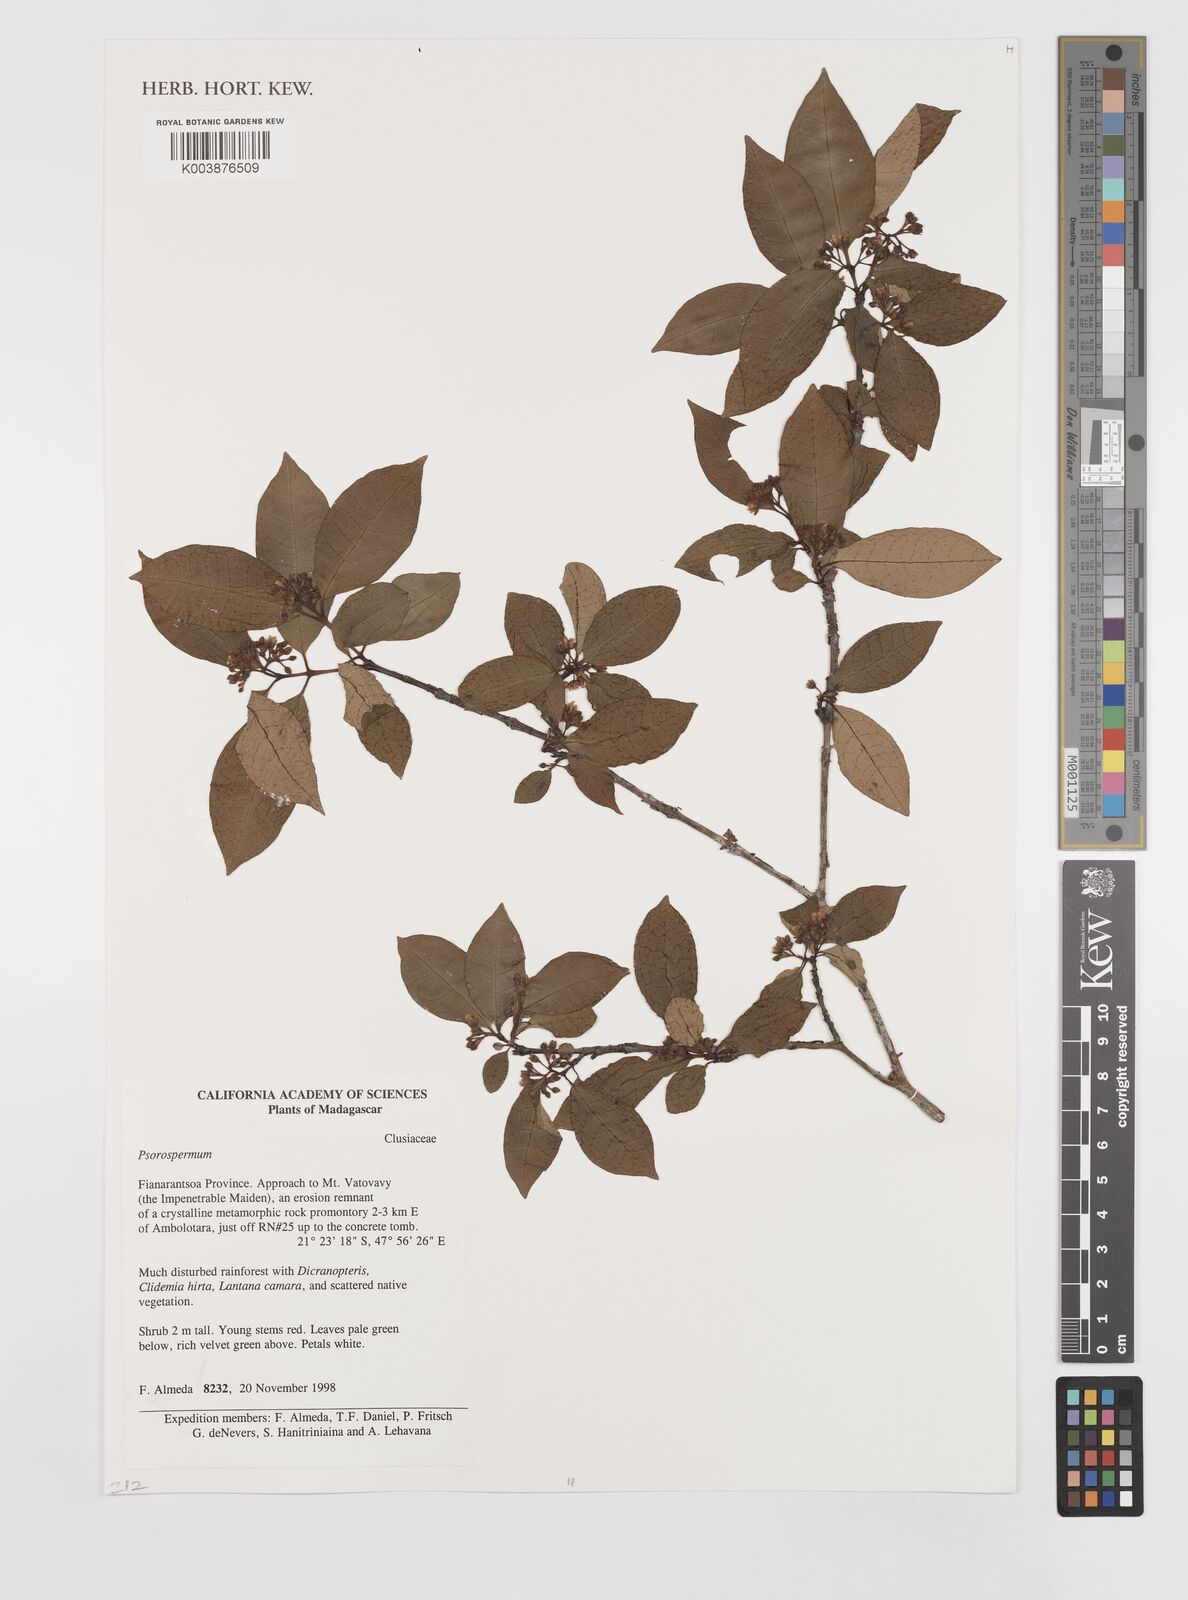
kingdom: Plantae
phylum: Tracheophyta
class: Magnoliopsida
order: Malpighiales
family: Hypericaceae
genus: Psorospermum
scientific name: Psorospermum
